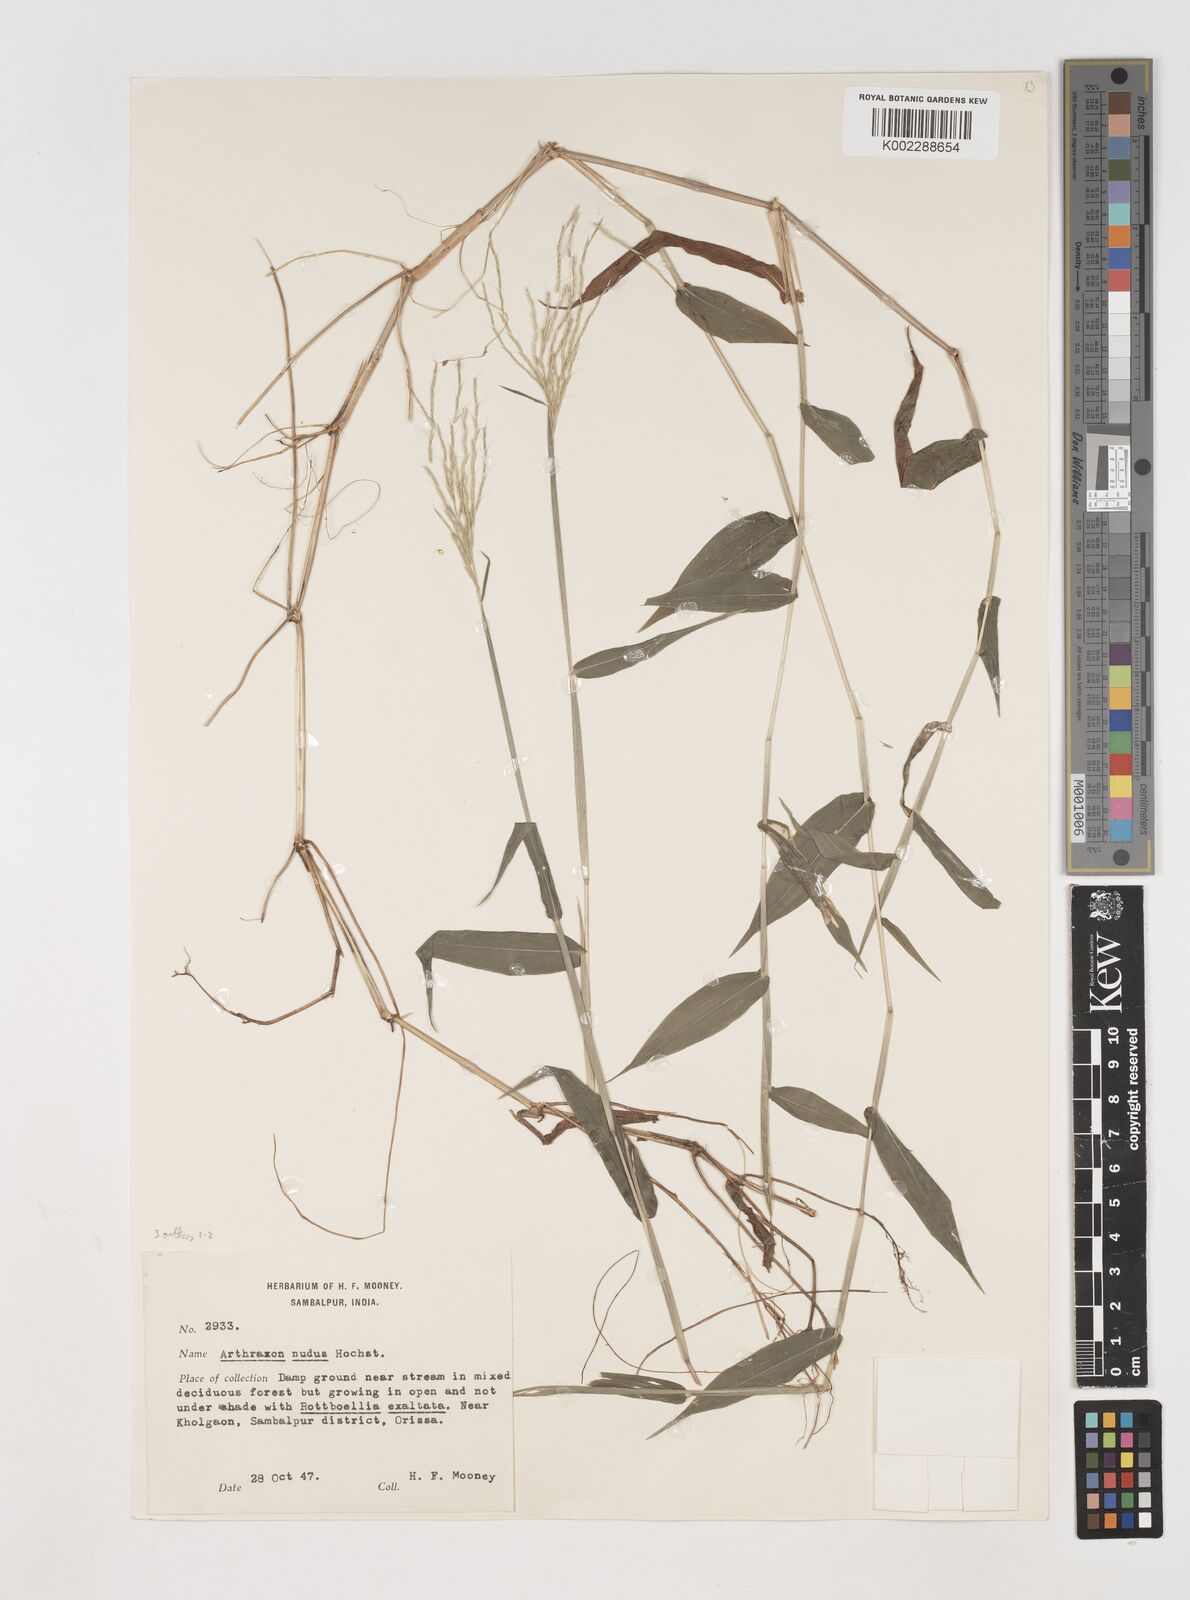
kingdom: Plantae
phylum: Tracheophyta
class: Liliopsida
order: Poales
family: Poaceae
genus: Arthraxon
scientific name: Arthraxon inermis
